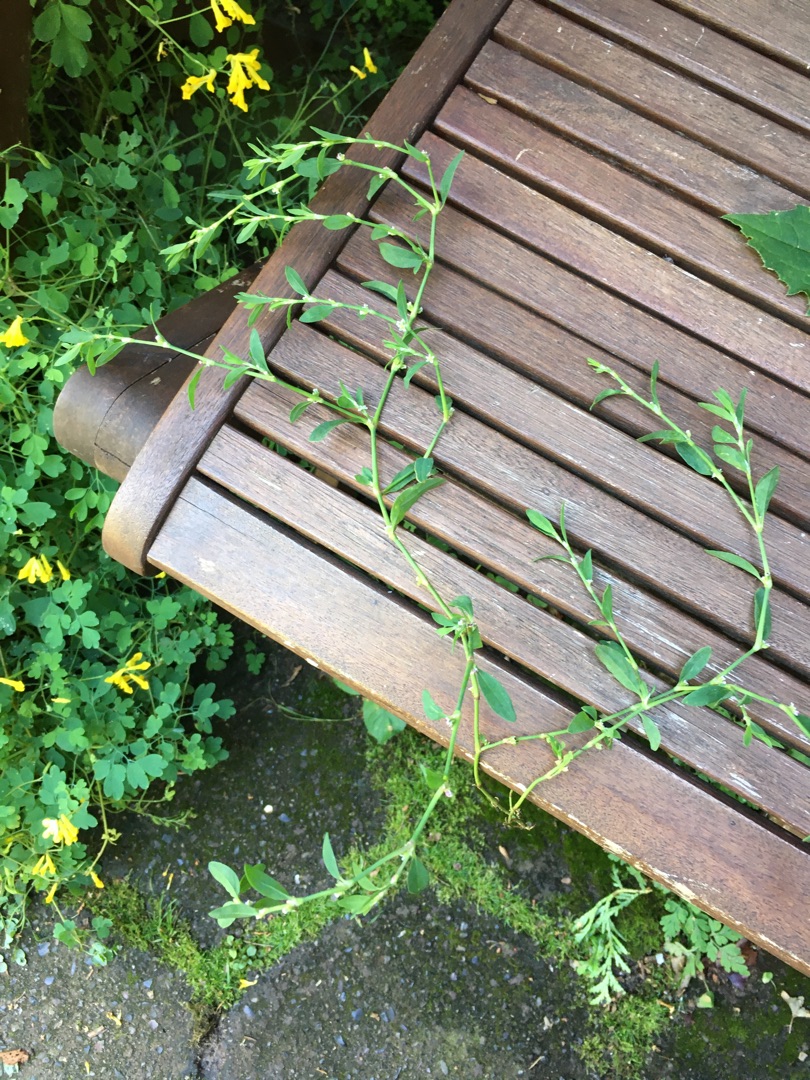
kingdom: Plantae
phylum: Tracheophyta
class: Magnoliopsida
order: Caryophyllales
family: Polygonaceae
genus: Polygonum
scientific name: Polygonum arenastrum
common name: Liggende vej-pileurt
